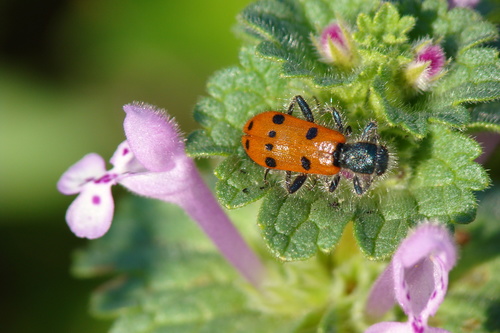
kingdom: Animalia
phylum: Arthropoda
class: Insecta
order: Coleoptera
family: Cleridae
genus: Trichodes
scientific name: Trichodes octopunctatus
